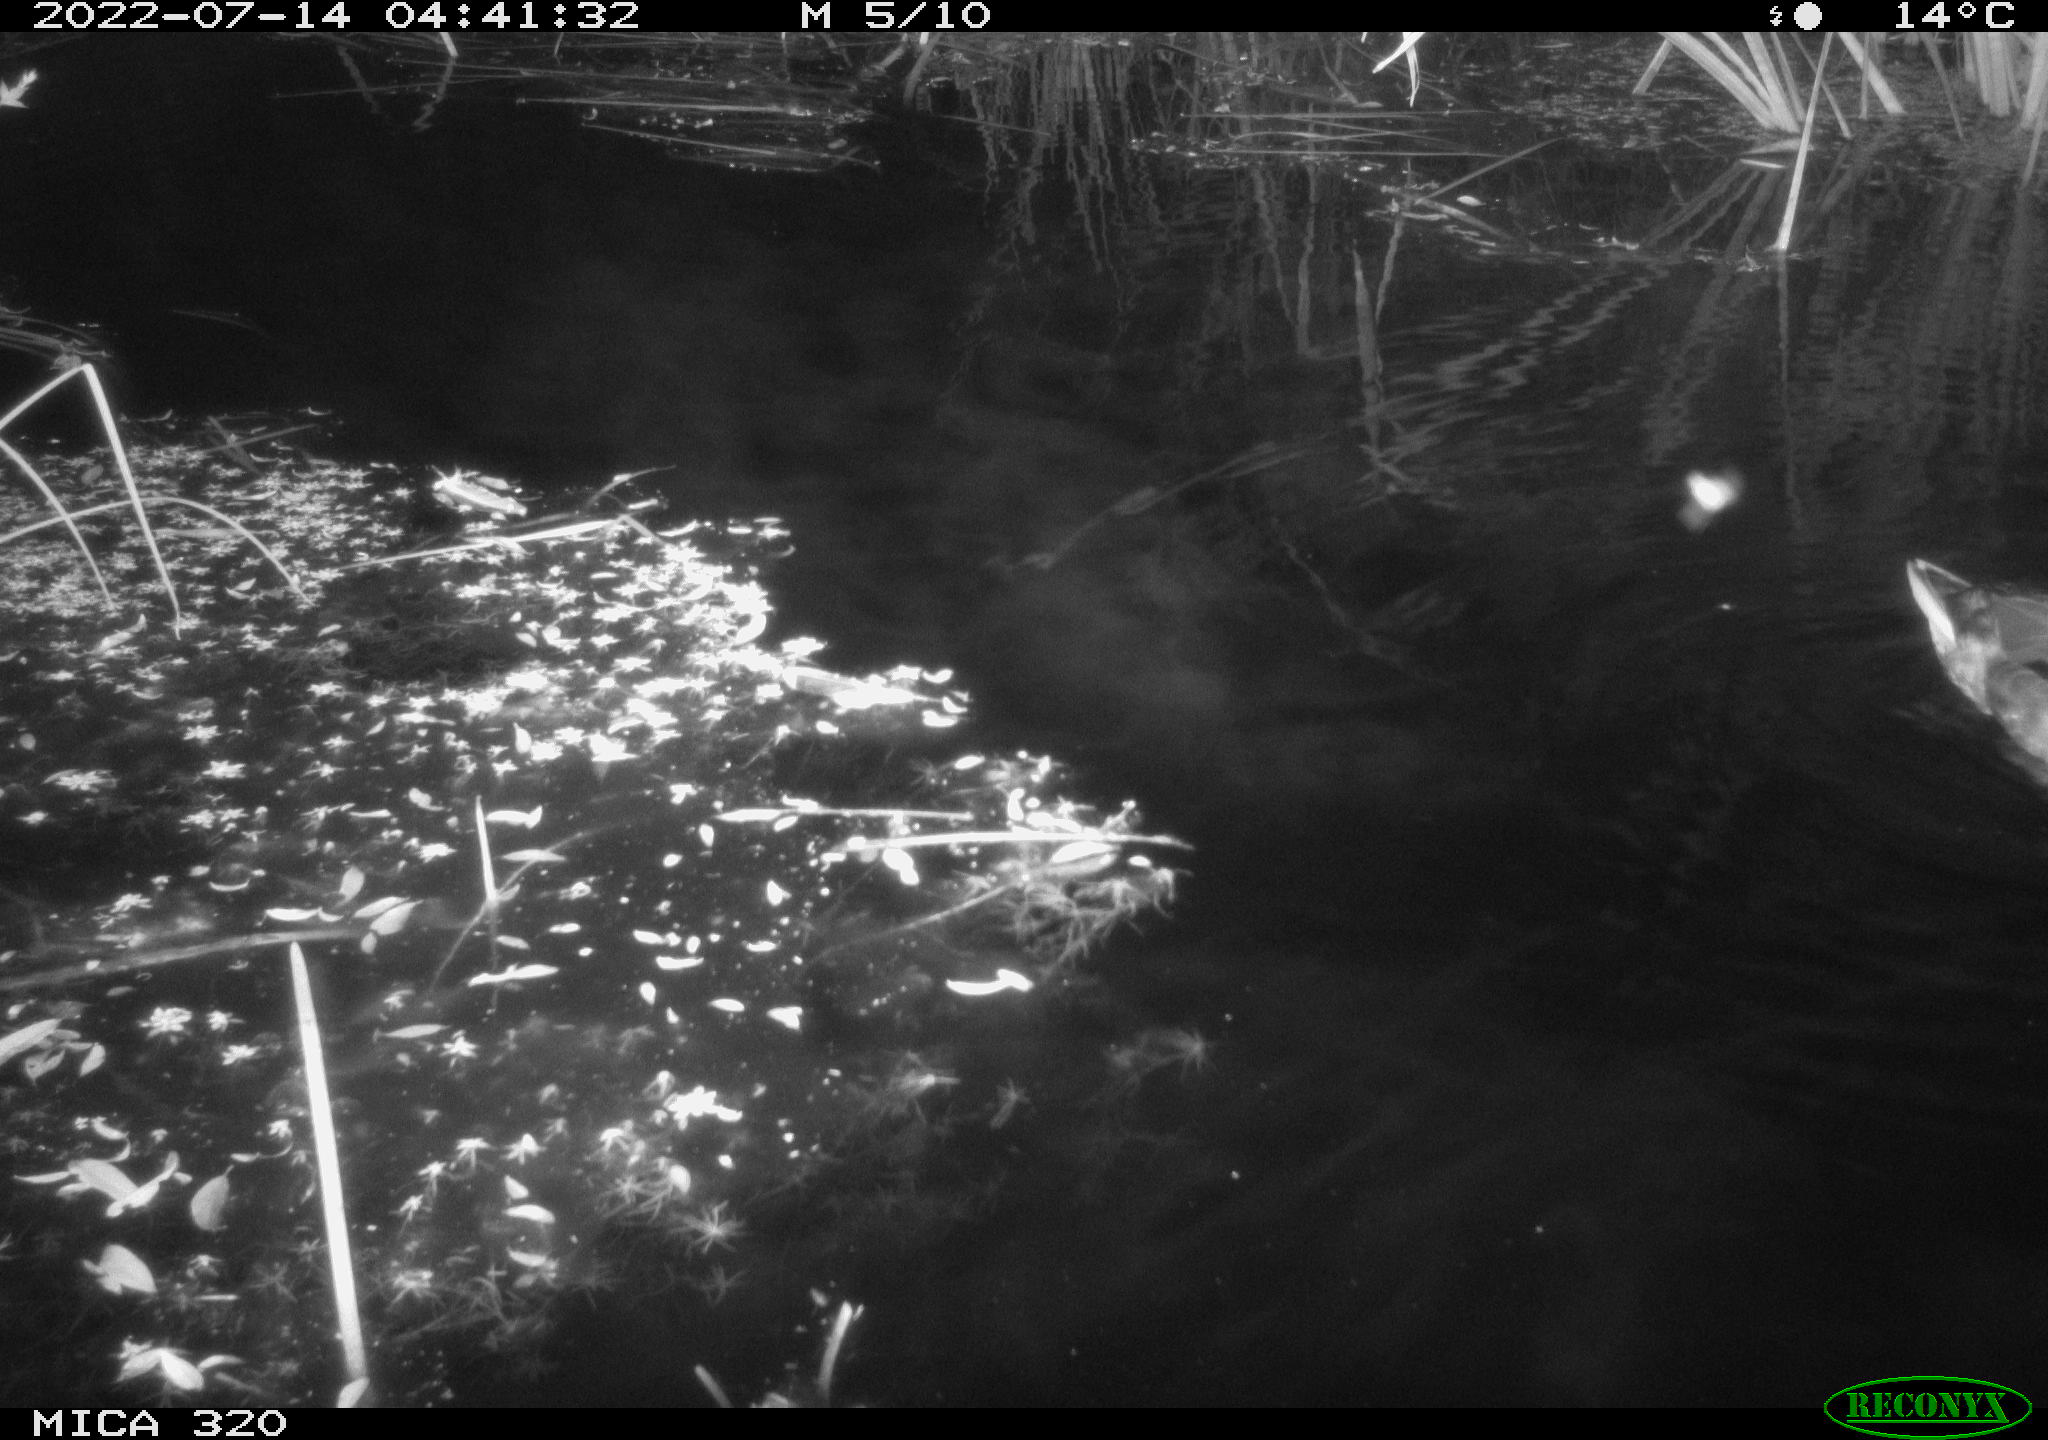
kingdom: Animalia
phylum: Chordata
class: Aves
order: Anseriformes
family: Anatidae
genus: Anas
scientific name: Anas platyrhynchos
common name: Mallard
